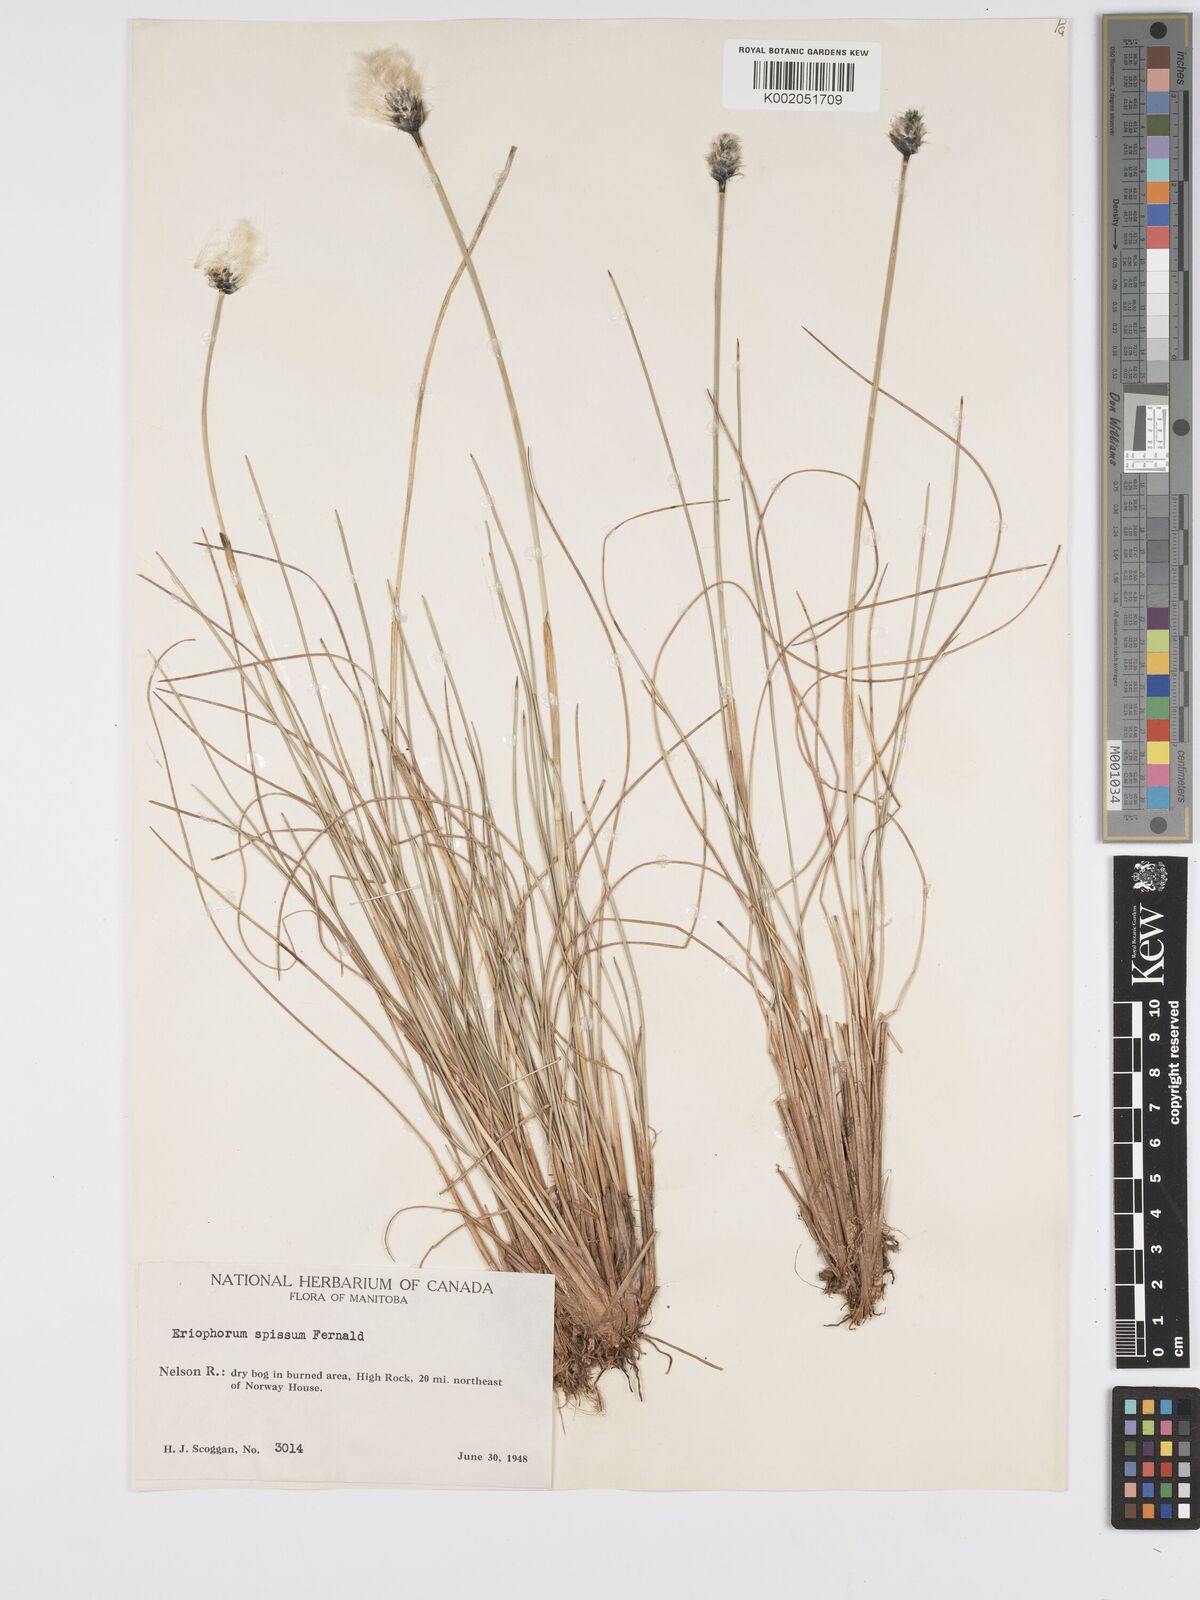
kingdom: Plantae
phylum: Tracheophyta
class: Liliopsida
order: Poales
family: Cyperaceae
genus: Eriophorum
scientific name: Eriophorum vaginatum
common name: Hare's-tail cottongrass
